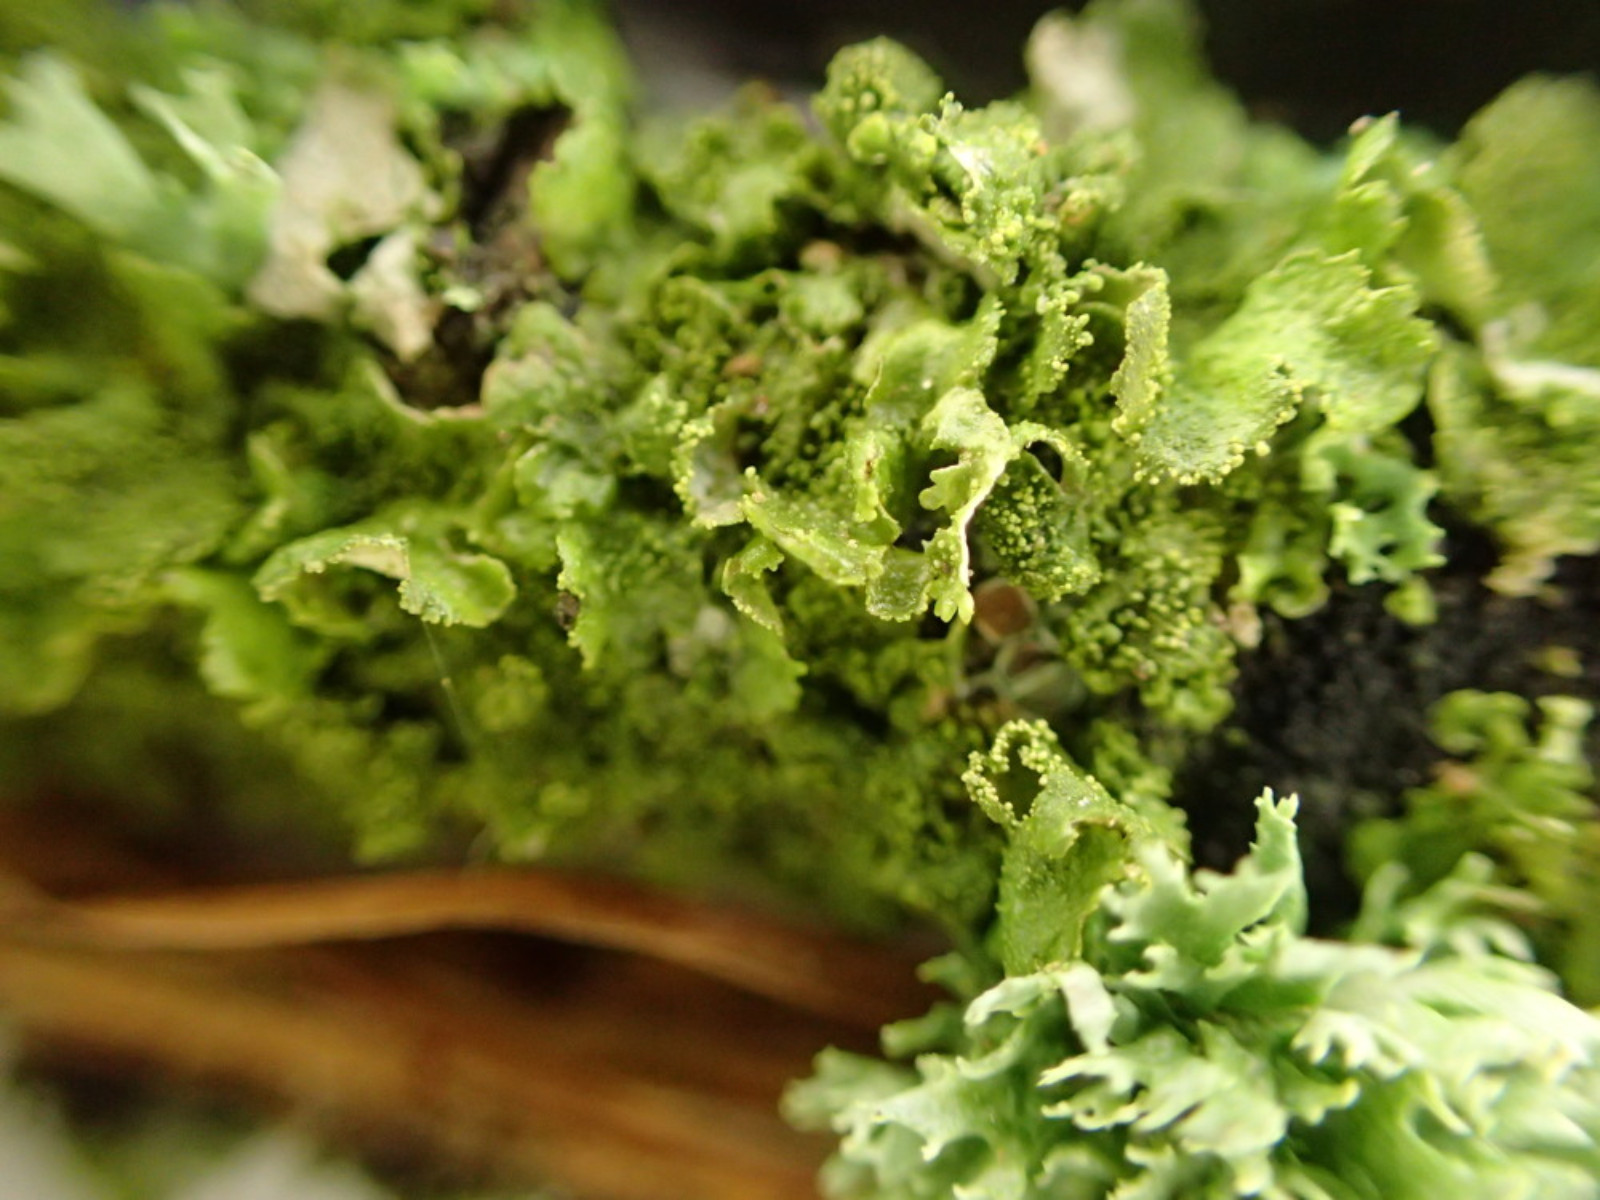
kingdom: Fungi
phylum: Ascomycota
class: Lecanoromycetes
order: Lecanorales
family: Parmeliaceae
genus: Melanohalea
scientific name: Melanohalea exasperatula
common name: kølle-skållav
